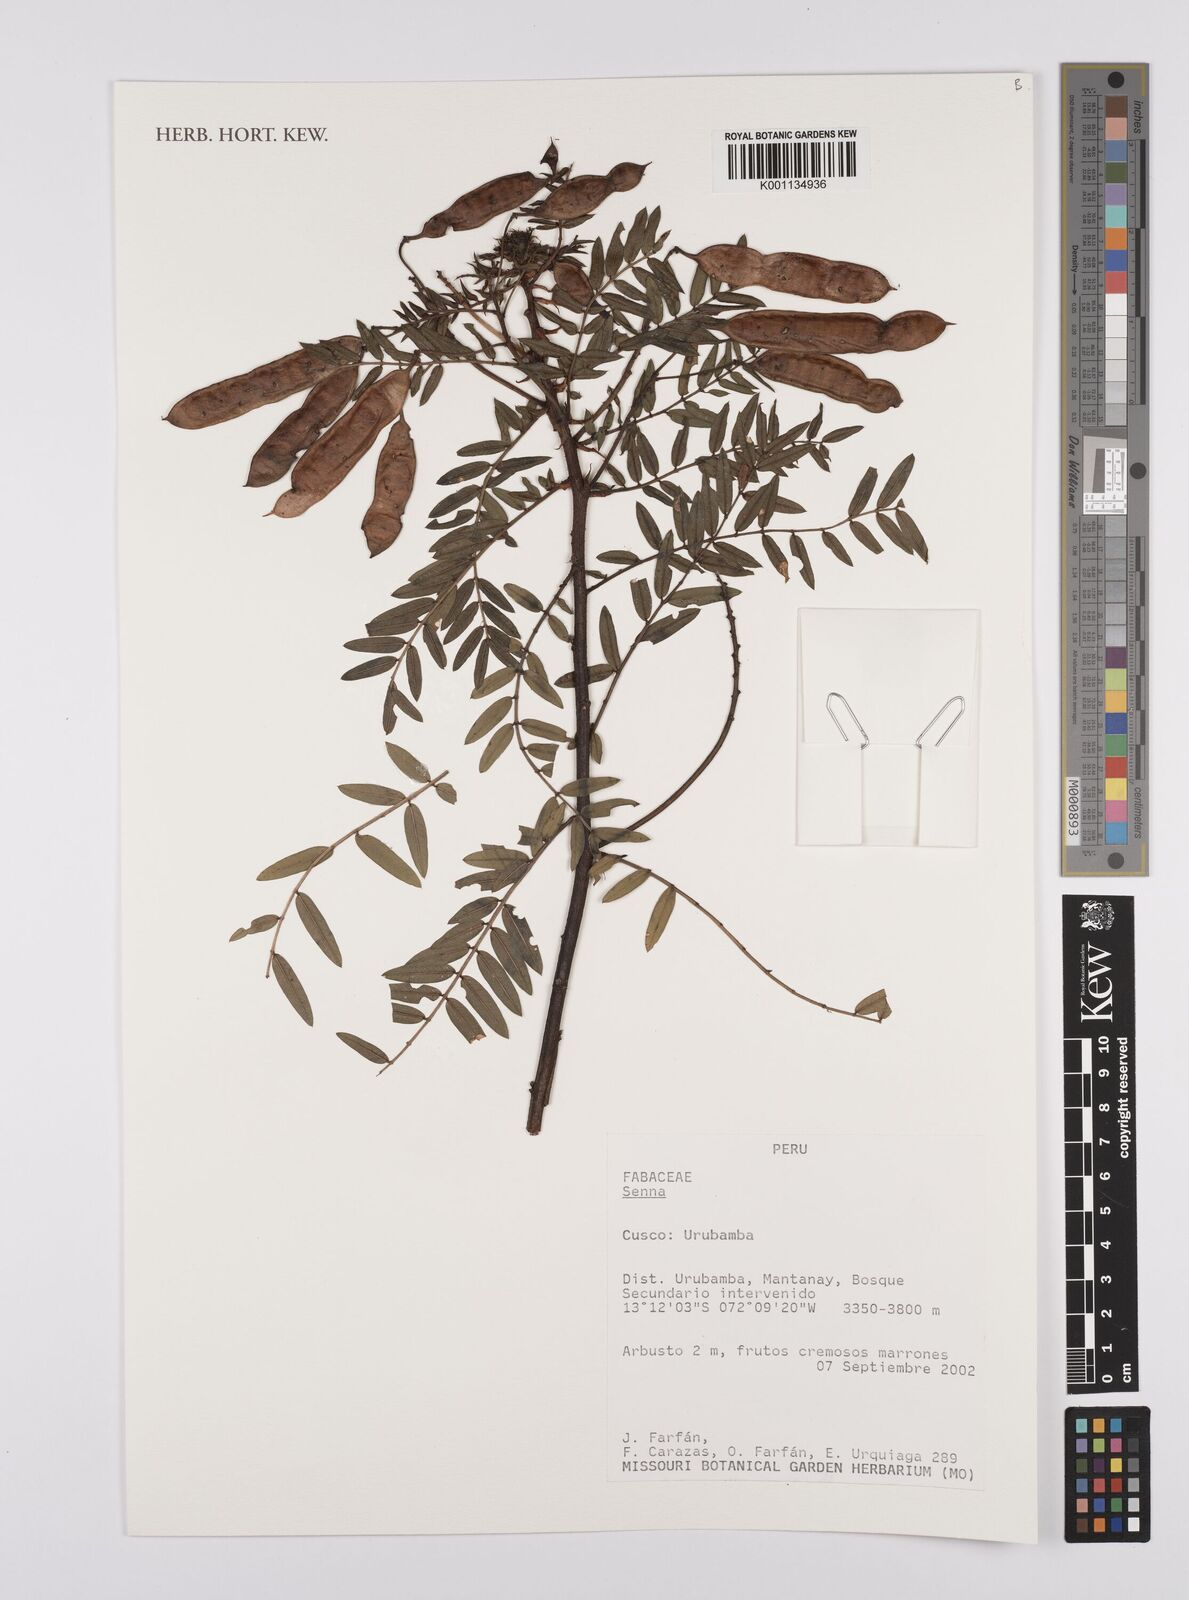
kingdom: Plantae
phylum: Tracheophyta
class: Magnoliopsida
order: Fabales
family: Fabaceae
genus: Senna
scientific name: Senna
